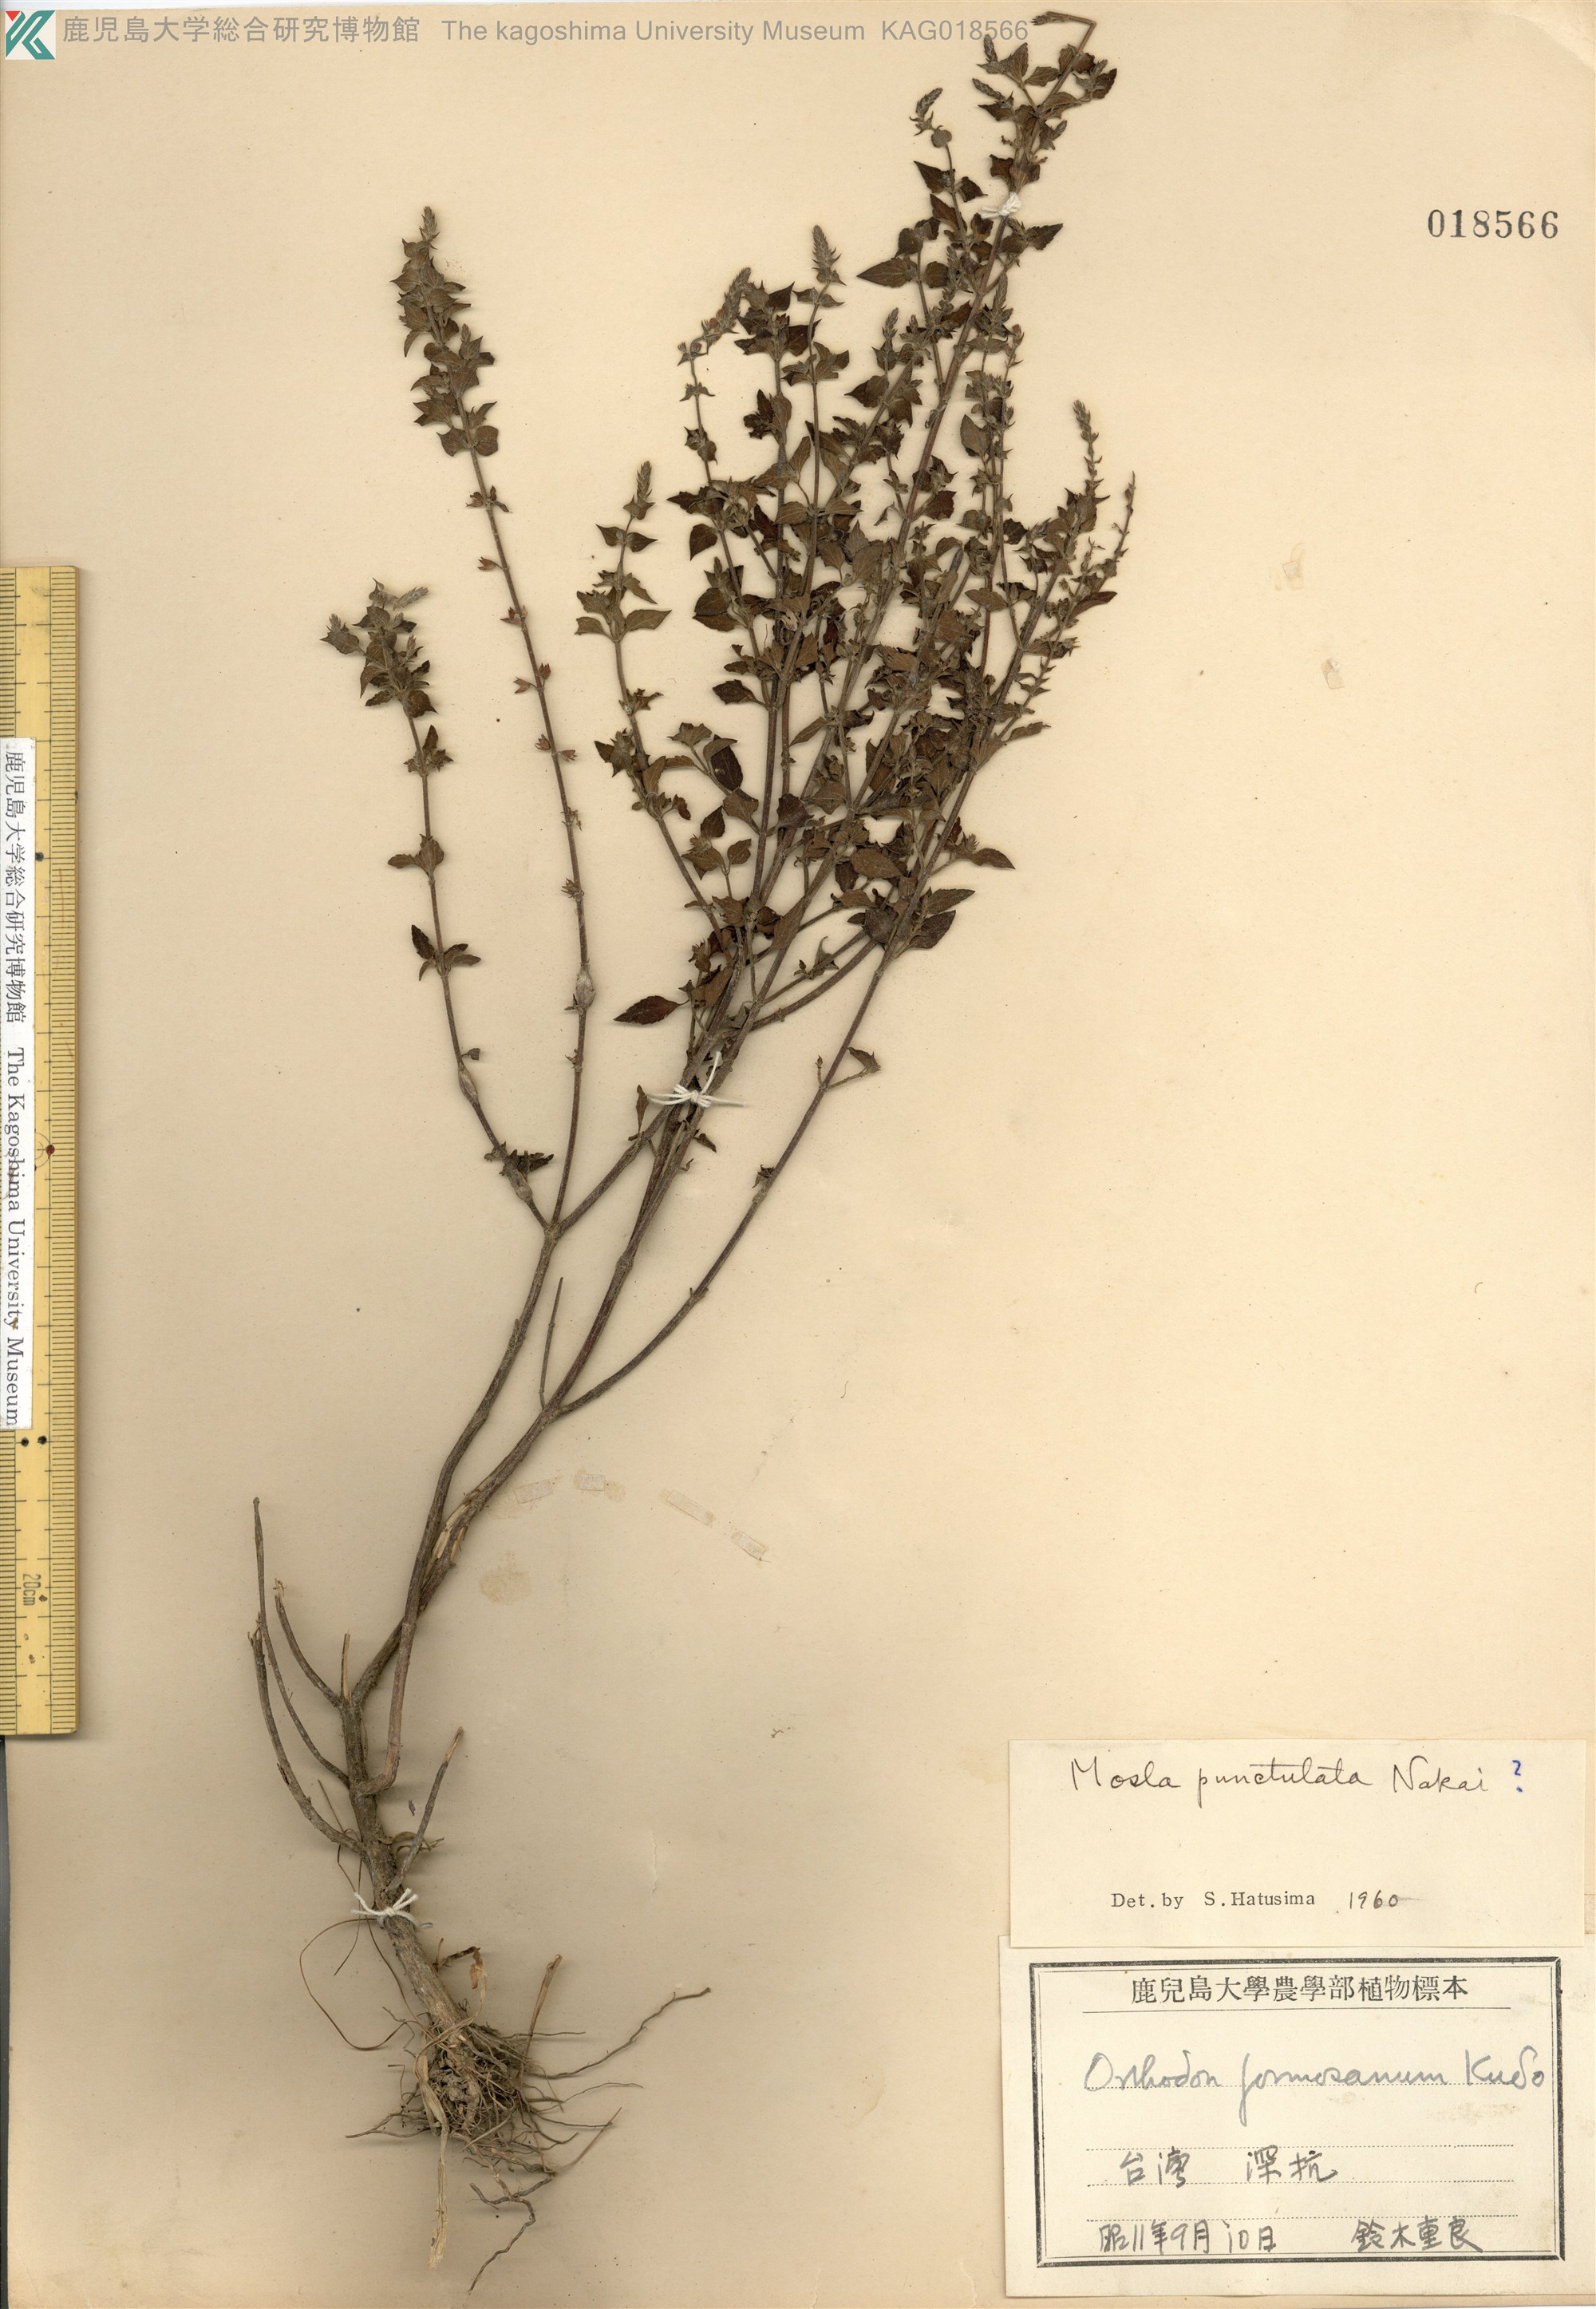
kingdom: Plantae
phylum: Tracheophyta
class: Magnoliopsida
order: Lamiales
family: Lamiaceae
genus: Mosla
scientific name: Mosla
